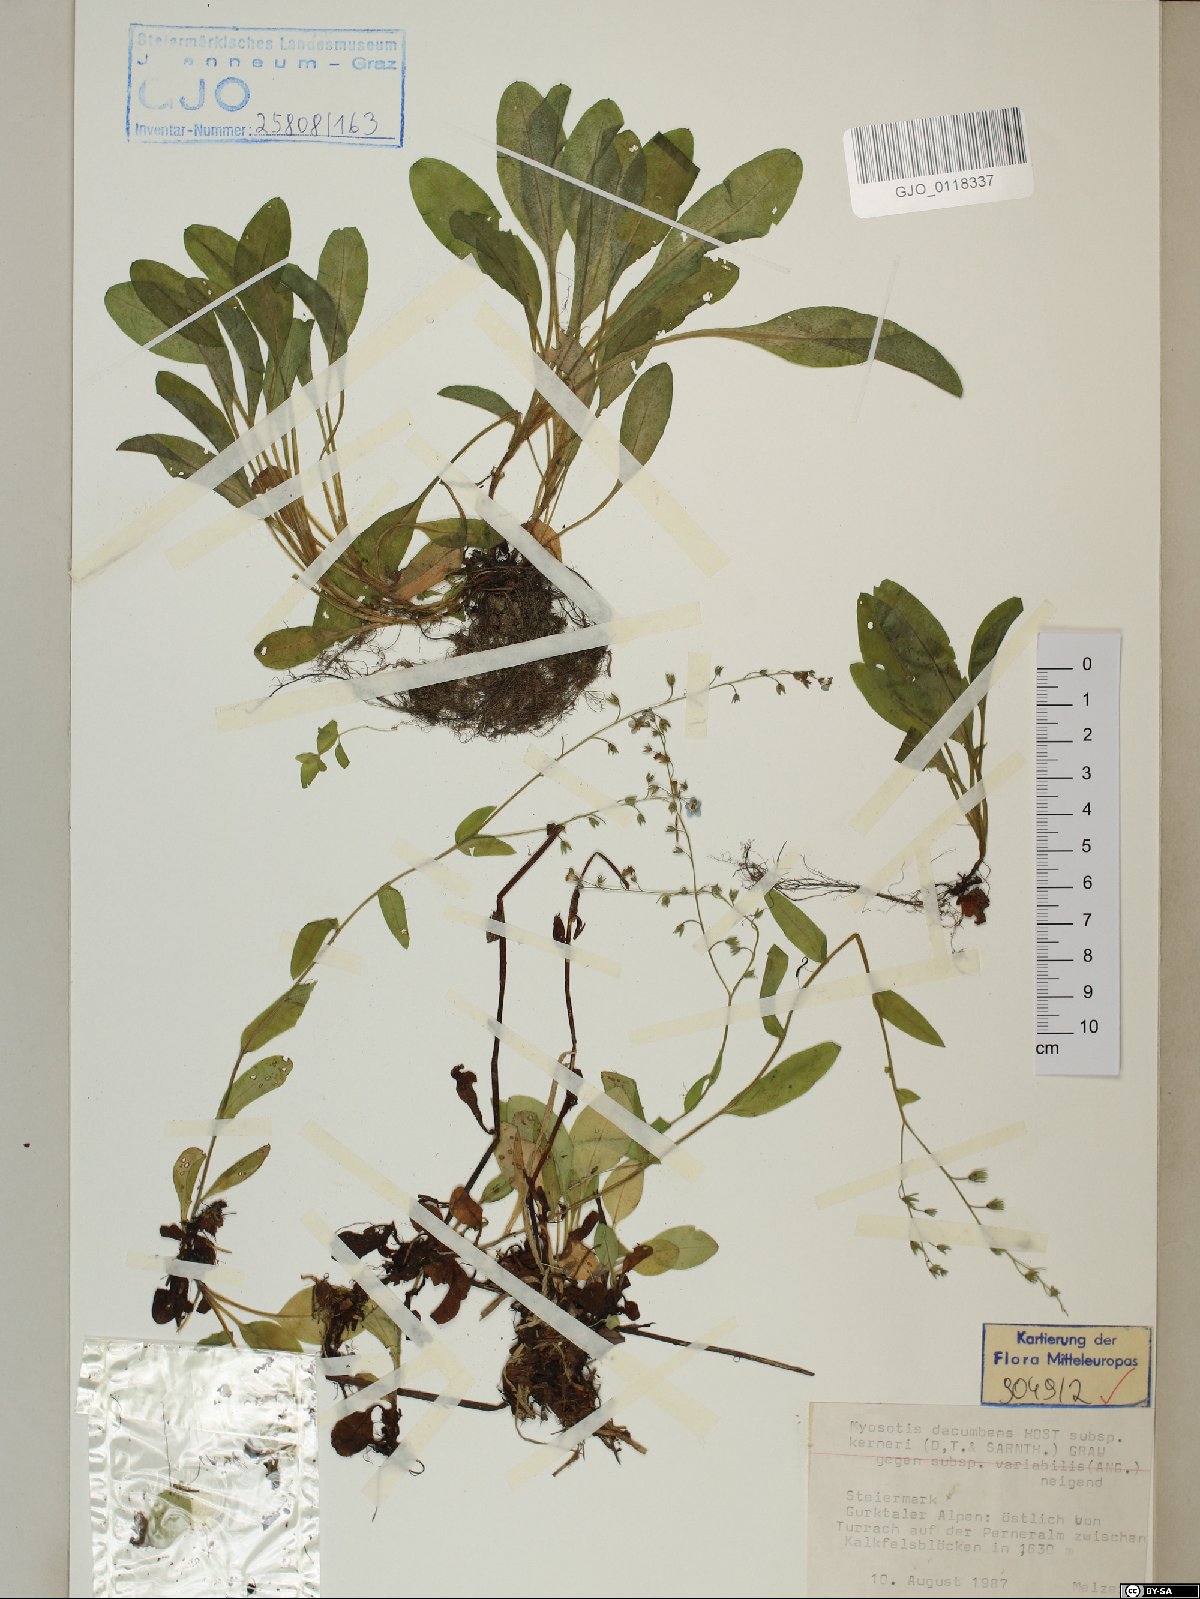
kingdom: Plantae
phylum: Tracheophyta
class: Magnoliopsida
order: Boraginales
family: Boraginaceae
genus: Myosotis
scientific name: Myosotis decumbens
